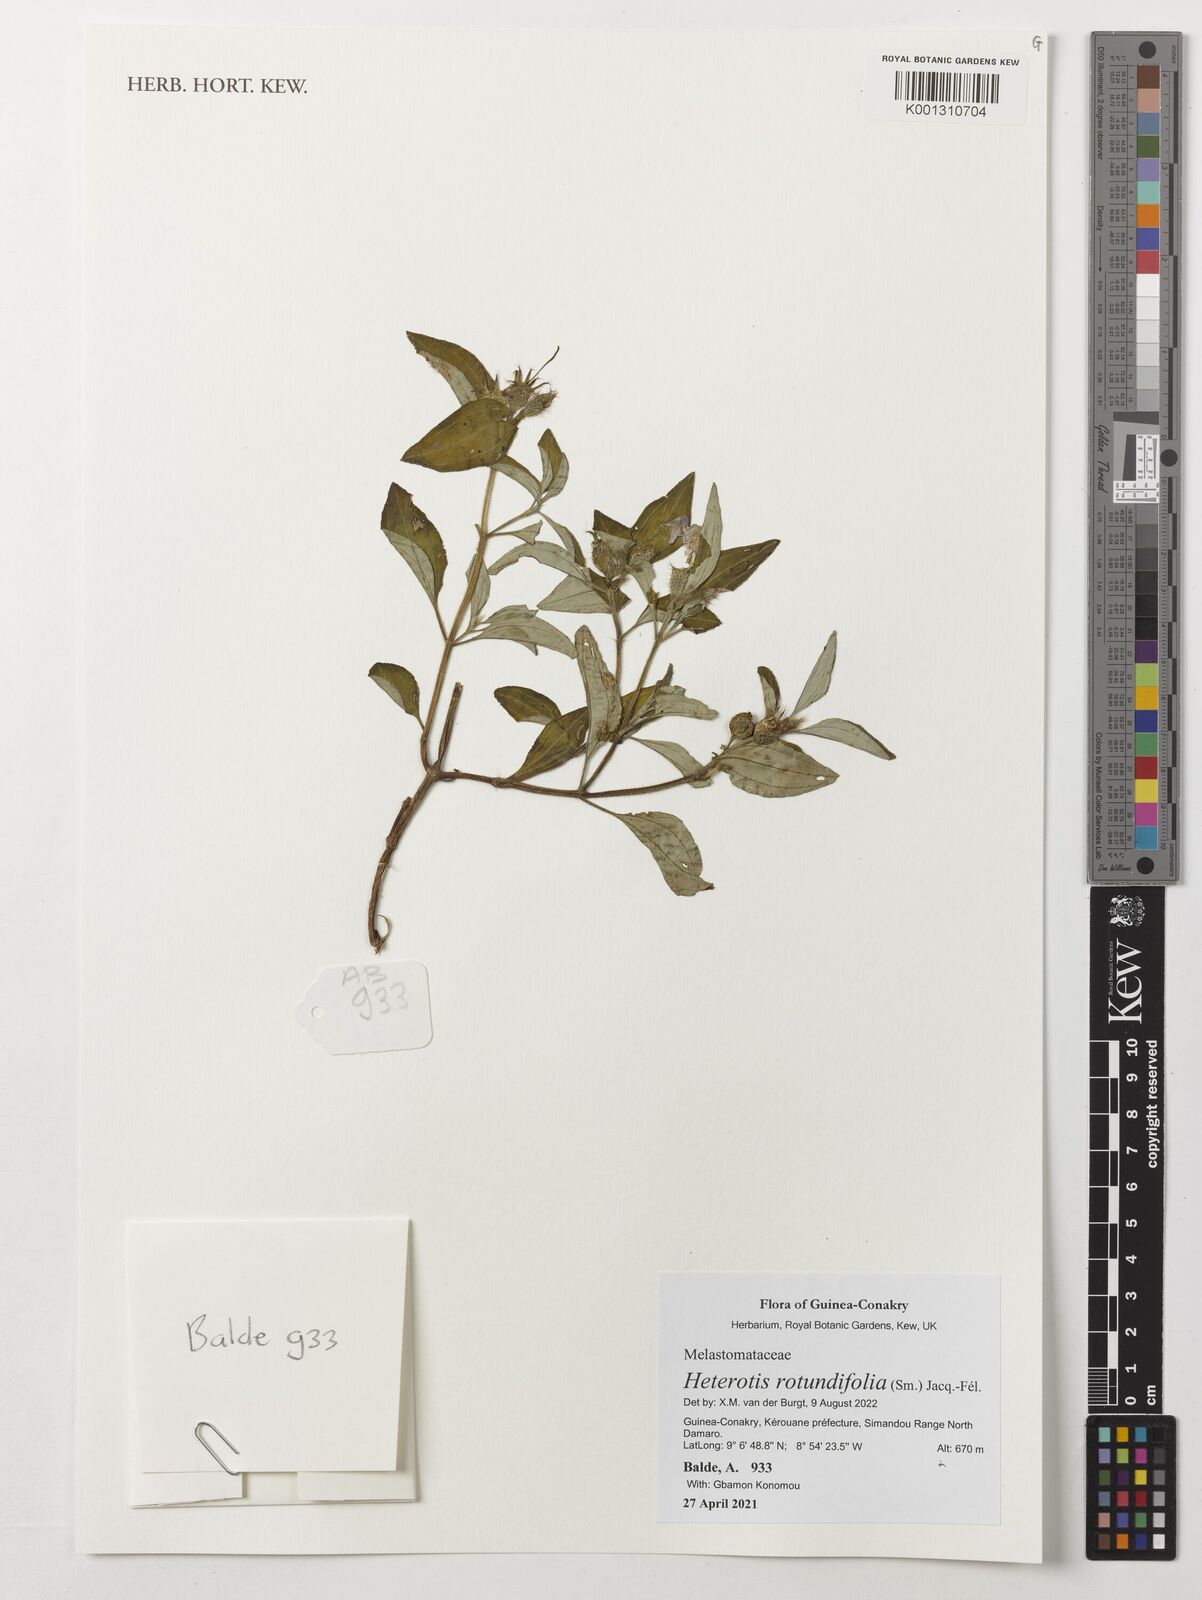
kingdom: Plantae
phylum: Tracheophyta
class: Magnoliopsida
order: Myrtales
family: Melastomataceae
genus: Heterotis
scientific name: Heterotis rotundifolia
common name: Pinklady
